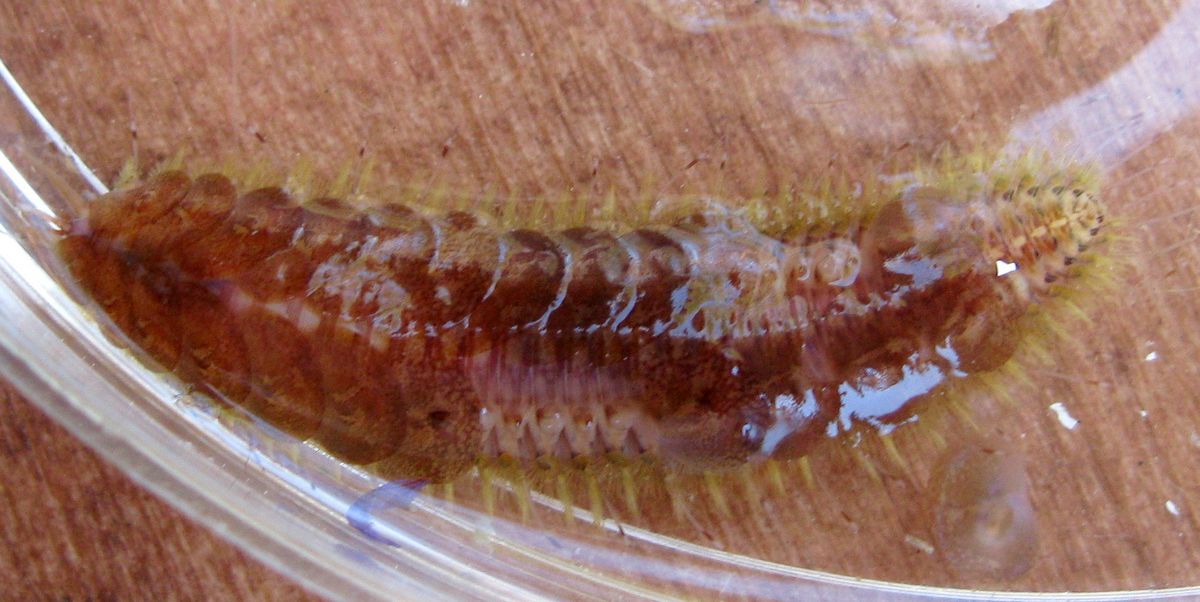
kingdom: Animalia
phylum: Annelida
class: Polychaeta
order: Phyllodocida
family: Polynoidae
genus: Harmothoe
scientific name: Harmothoe imbricata
